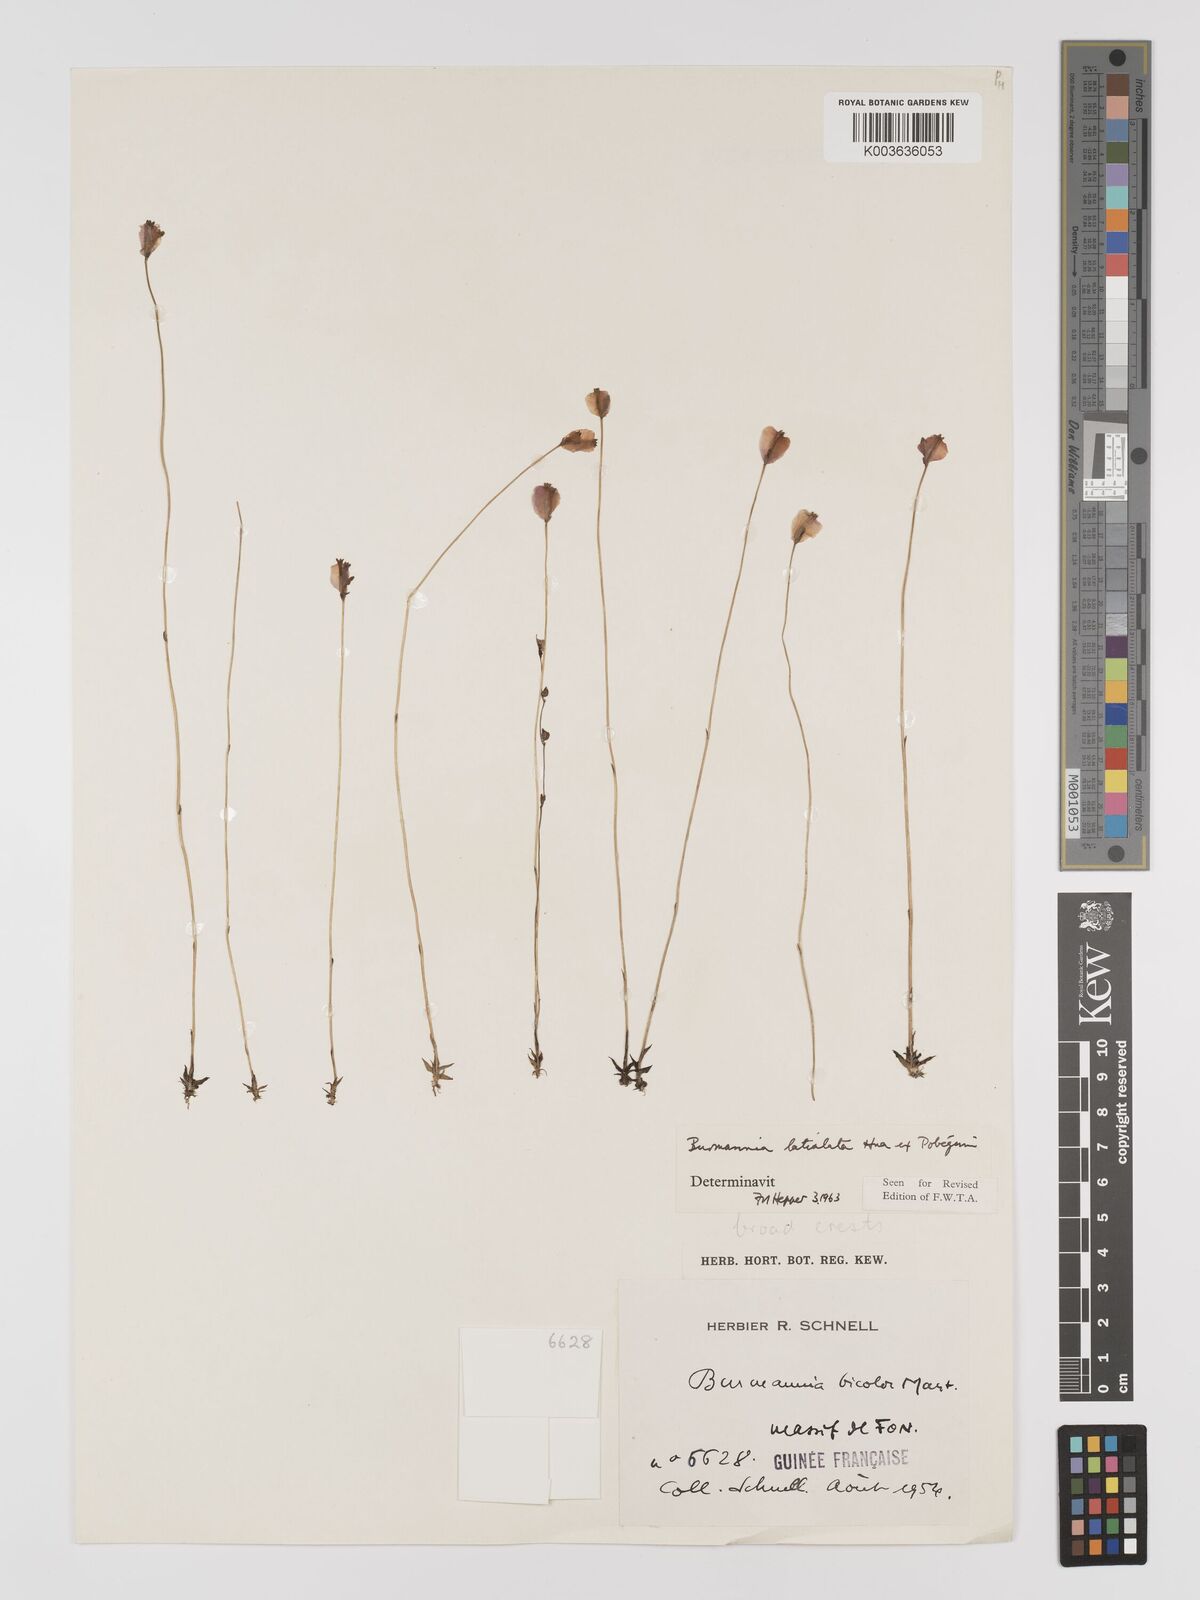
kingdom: Plantae
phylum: Tracheophyta
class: Liliopsida
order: Dioscoreales
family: Burmanniaceae
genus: Burmannia
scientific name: Burmannia madagascariensis
